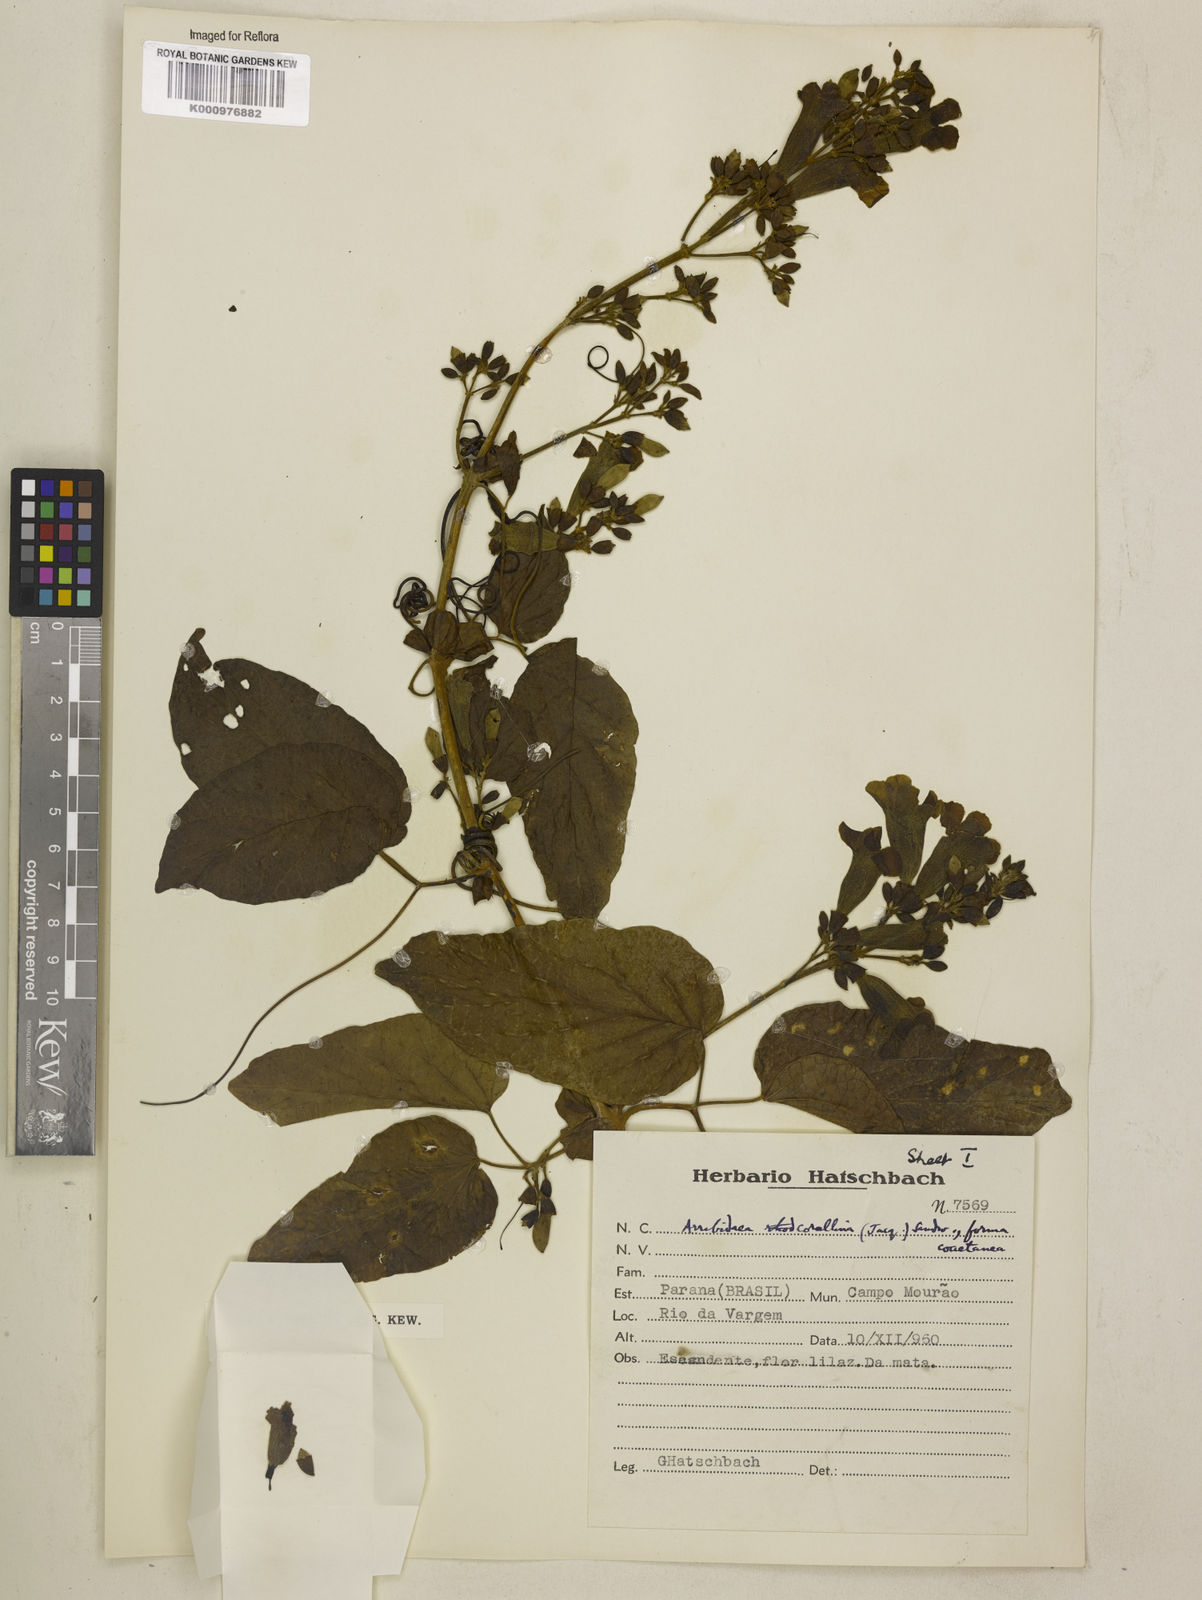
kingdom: Plantae
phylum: Tracheophyta
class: Magnoliopsida
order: Lamiales
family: Bignoniaceae
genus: Tanaecium
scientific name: Tanaecium dichotomum
